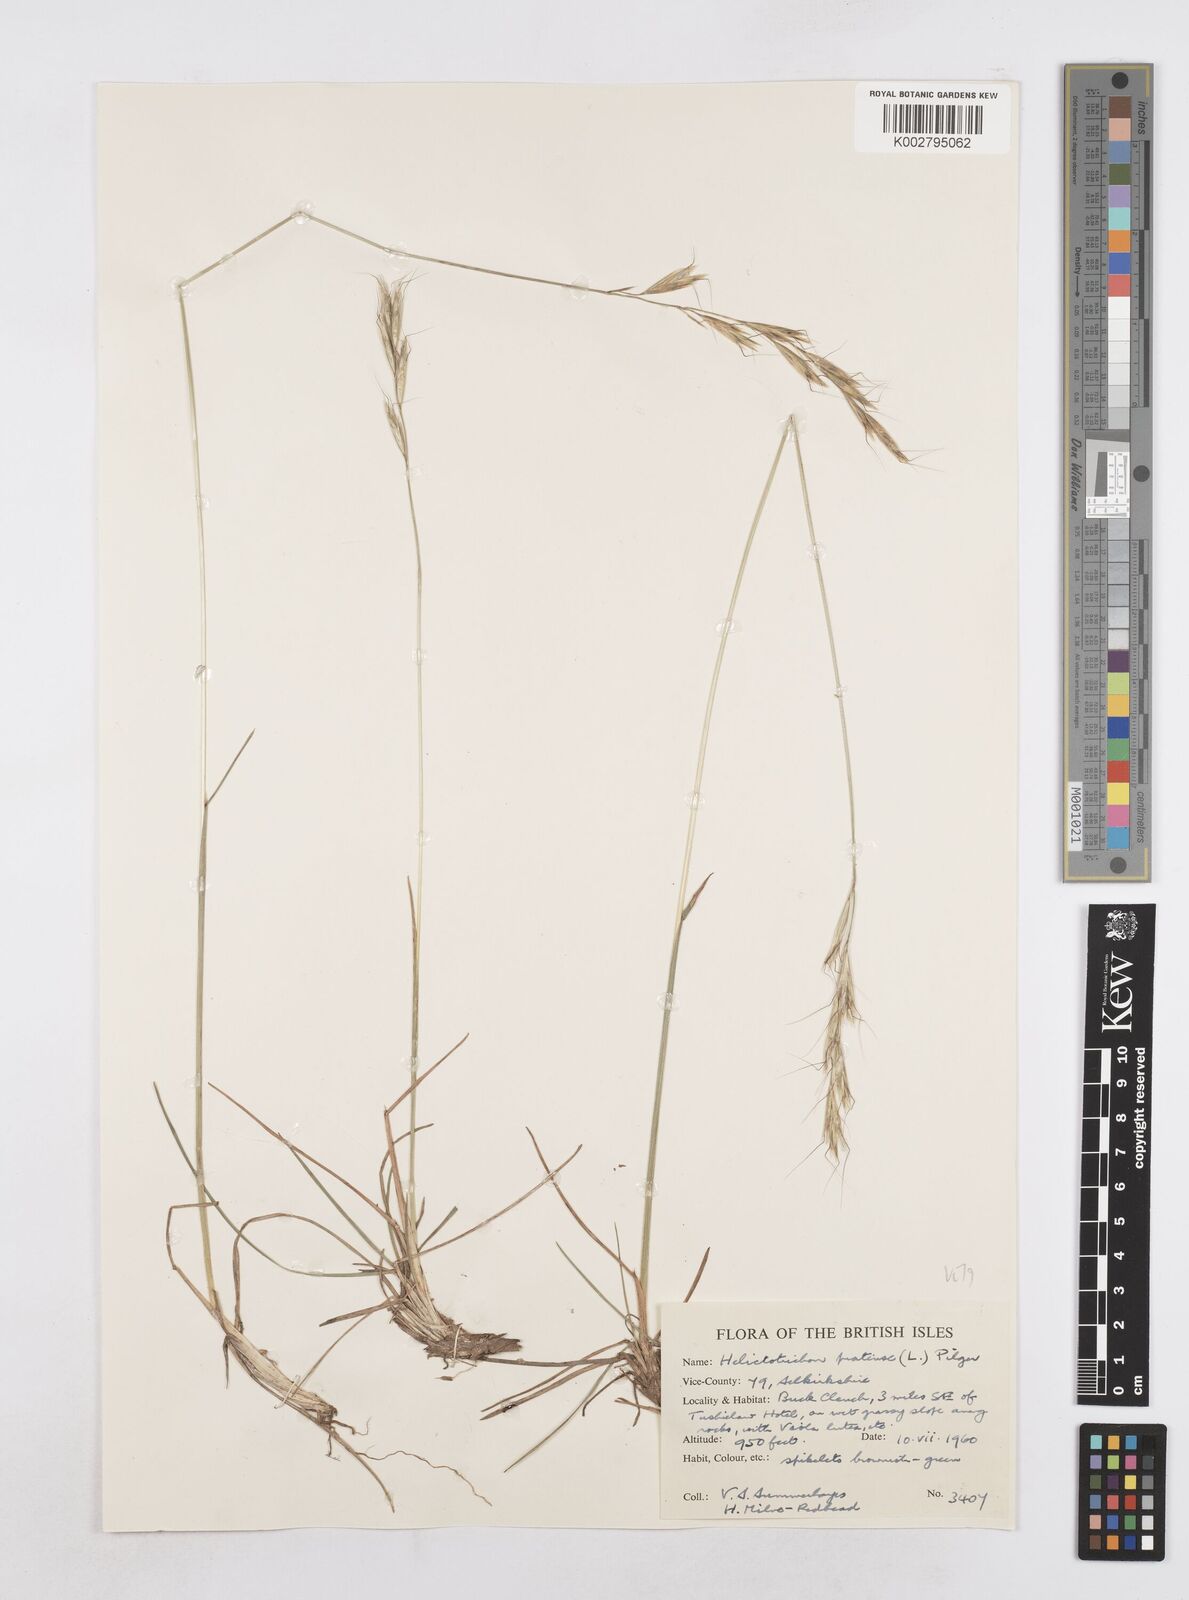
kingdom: Plantae
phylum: Tracheophyta
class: Liliopsida
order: Poales
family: Poaceae
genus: Helictotrichon
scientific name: Helictotrichon
